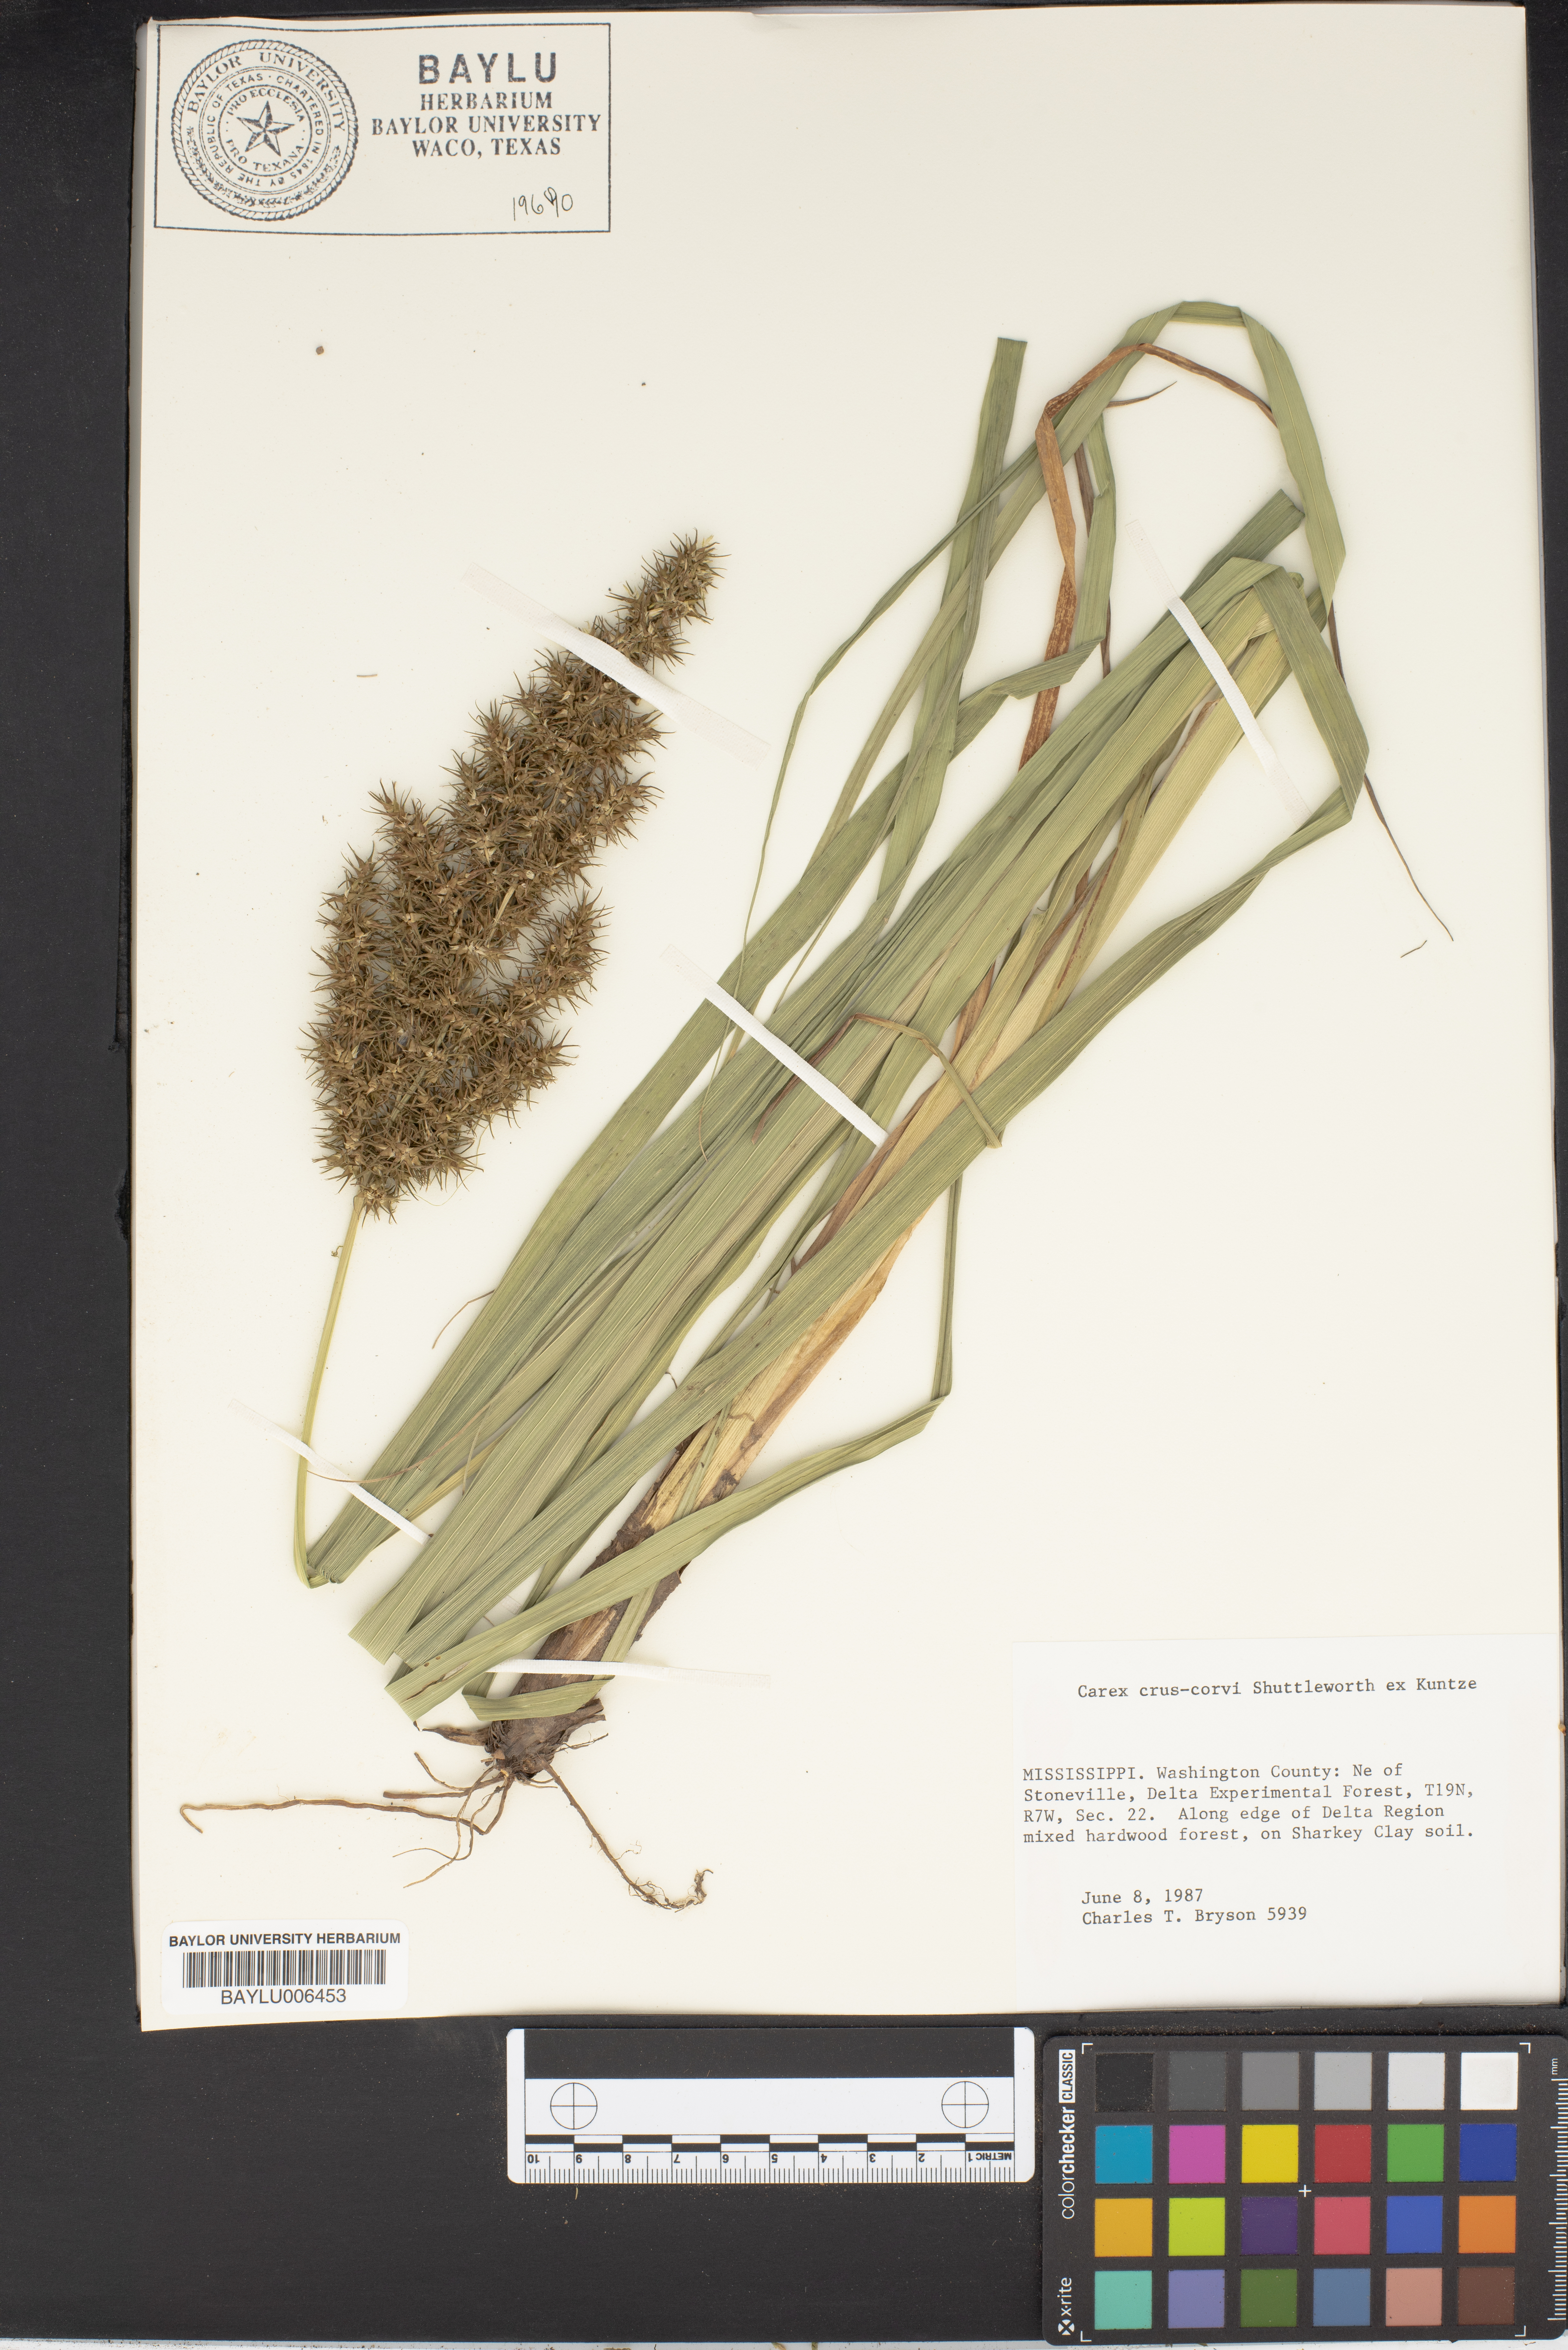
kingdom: Plantae
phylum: Tracheophyta
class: Liliopsida
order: Poales
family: Cyperaceae
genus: Carex
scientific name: Carex crus-corvi
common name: Crow-spur sedge
